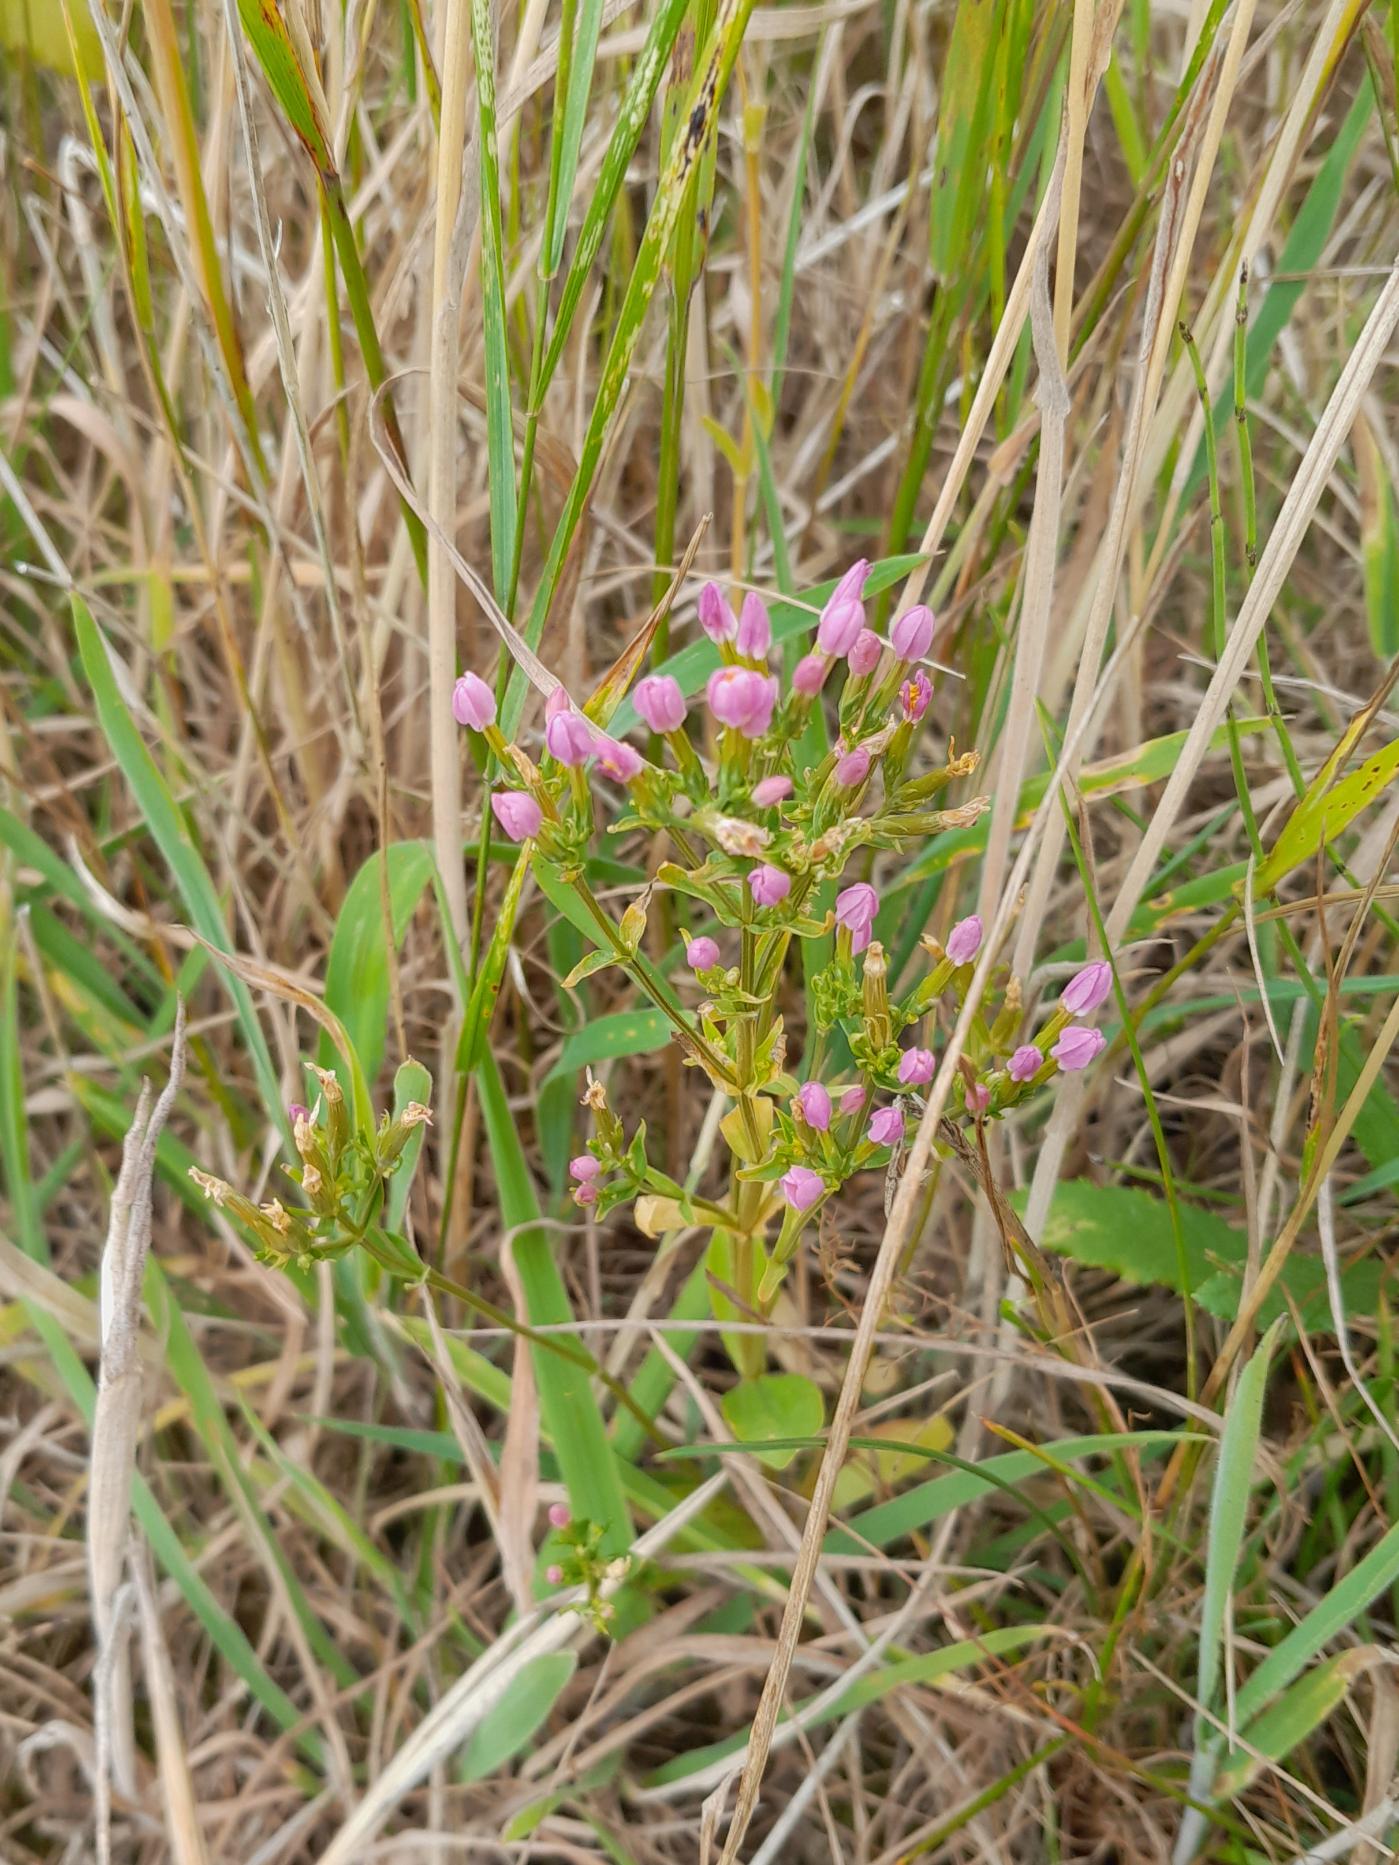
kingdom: Plantae
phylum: Tracheophyta
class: Magnoliopsida
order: Gentianales
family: Gentianaceae
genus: Centaurium
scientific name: Centaurium erythraea
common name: Mark-tusindgylden
